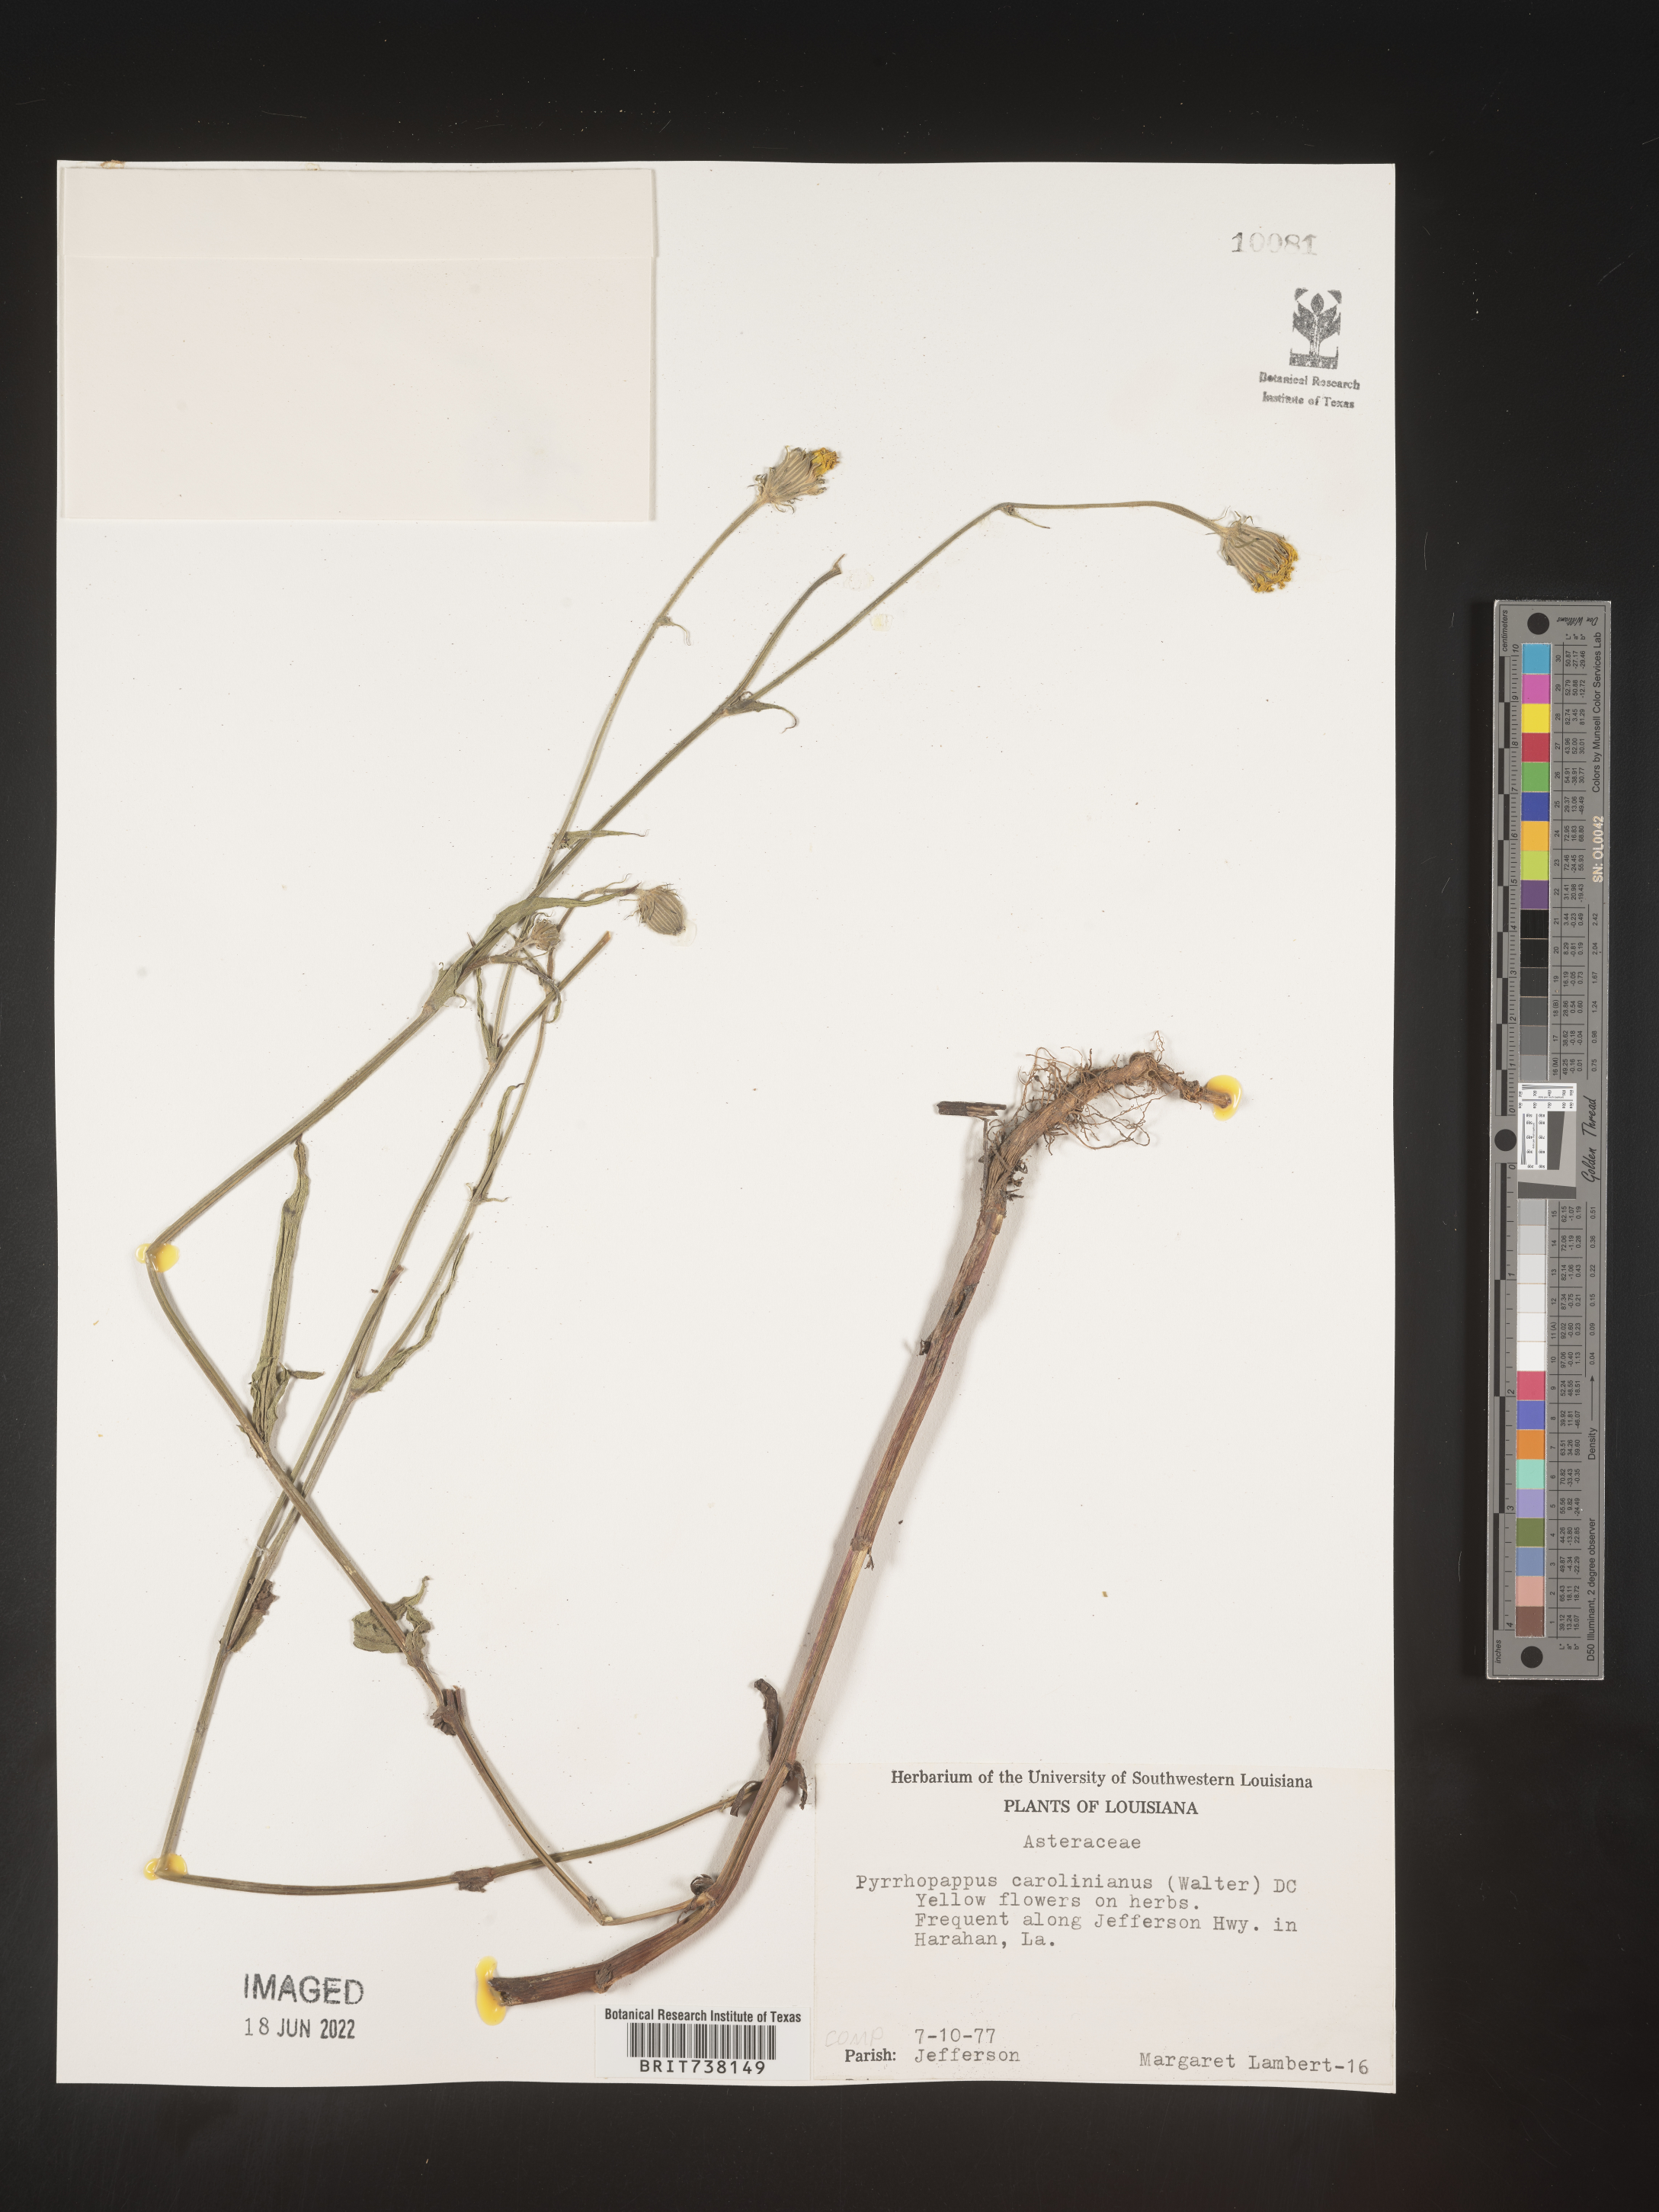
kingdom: Plantae
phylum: Tracheophyta
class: Magnoliopsida
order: Asterales
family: Asteraceae
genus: Pyrrhopappus
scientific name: Pyrrhopappus carolinianus
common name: Carolina desert-chicory
